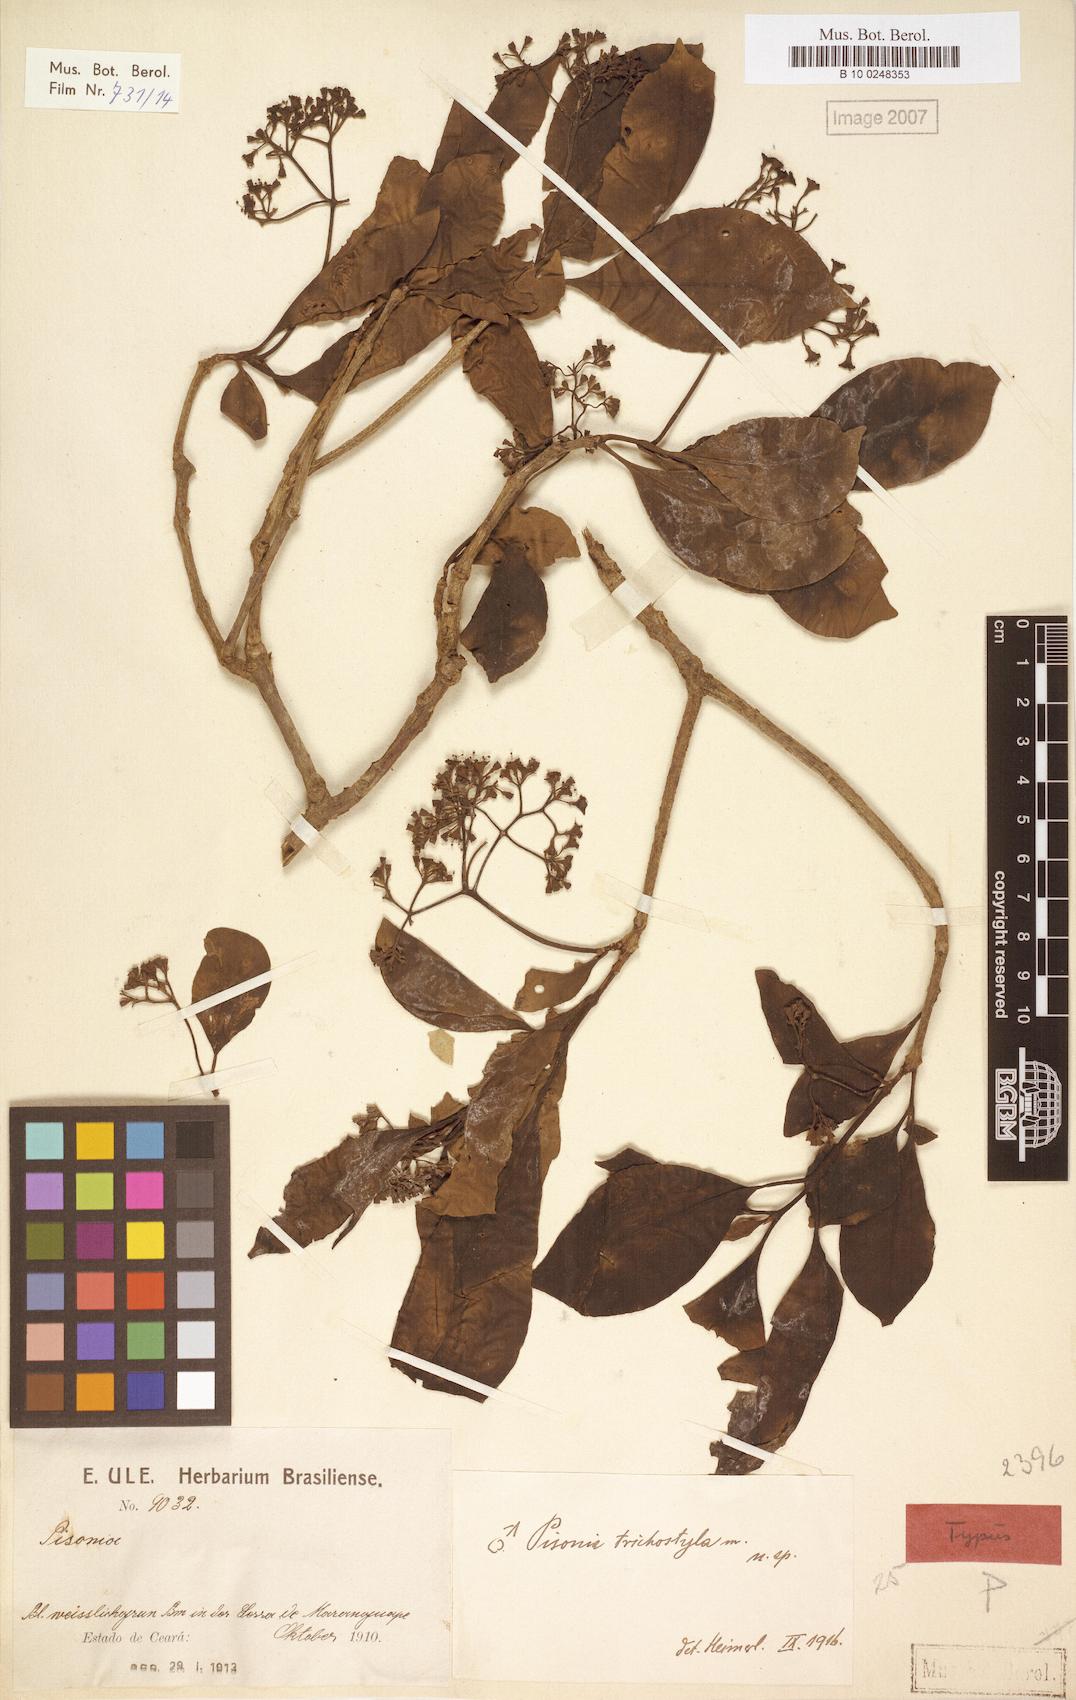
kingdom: Plantae
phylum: Tracheophyta
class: Magnoliopsida
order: Caryophyllales
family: Nyctaginaceae
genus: Pisonia
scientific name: Pisonia trichostyla
